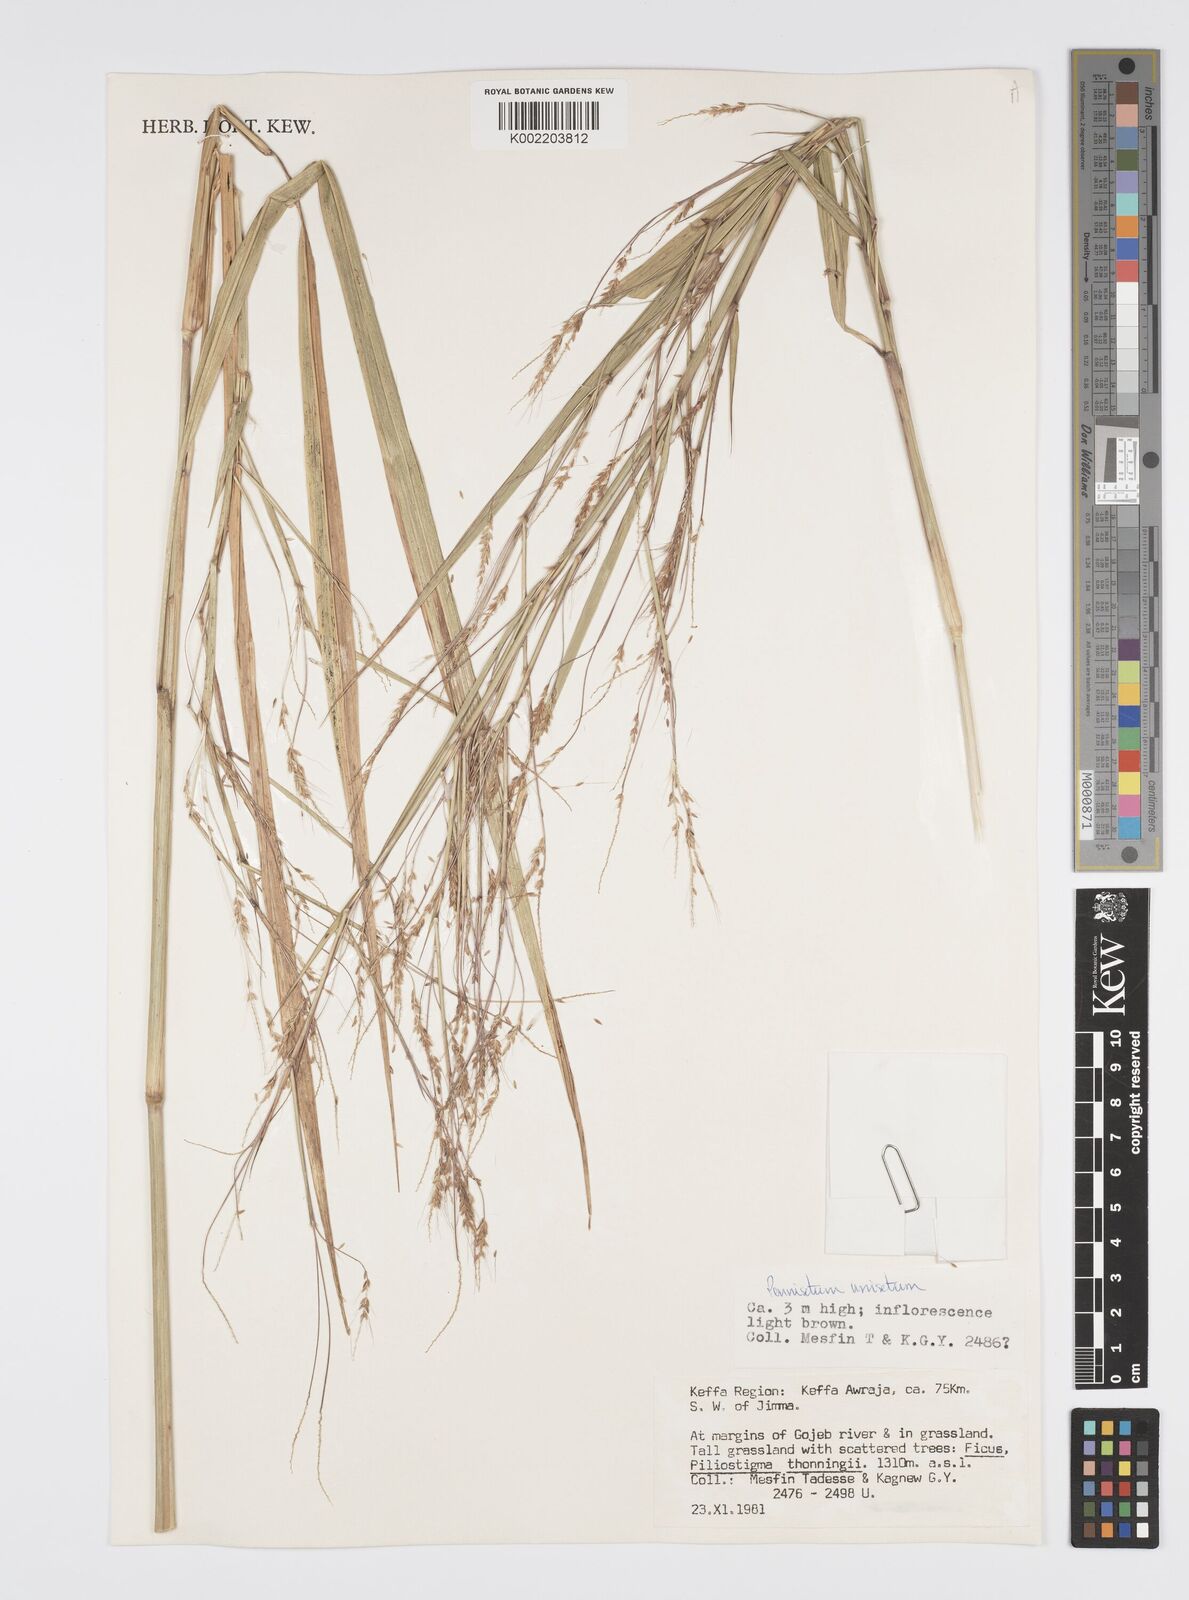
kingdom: Plantae
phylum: Tracheophyta
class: Liliopsida
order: Poales
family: Poaceae
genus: Cenchrus
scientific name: Cenchrus unisetus
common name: Natal grass
